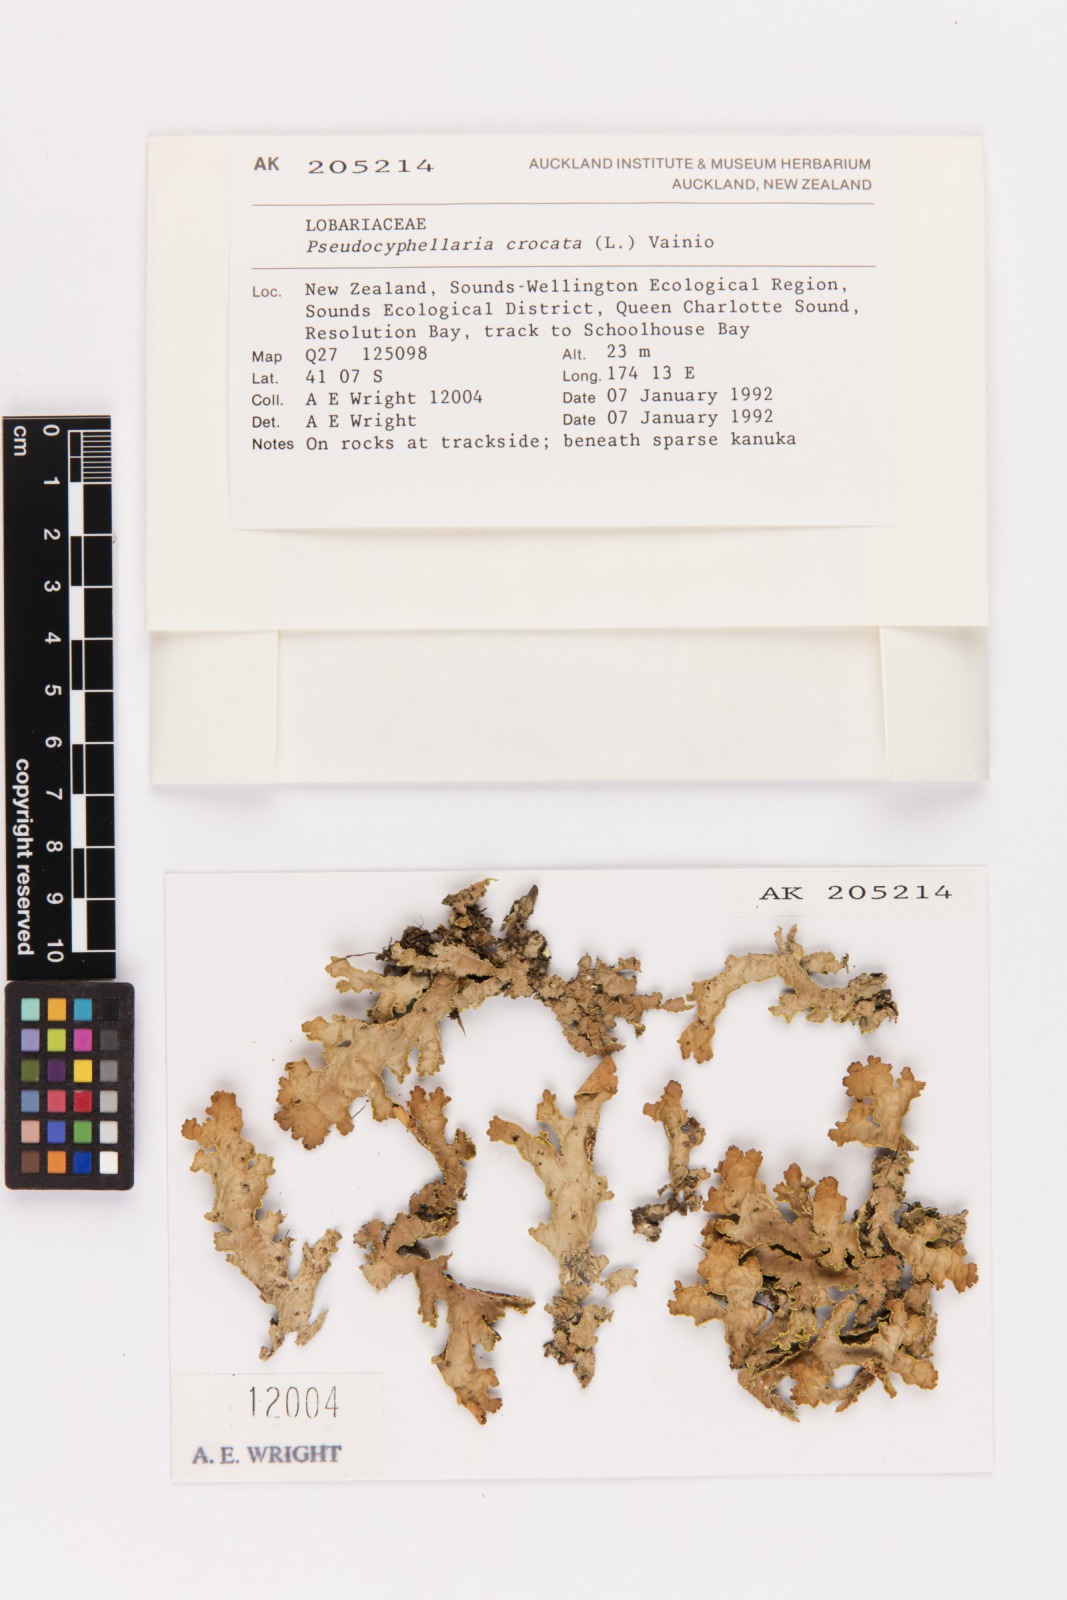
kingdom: Fungi
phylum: Ascomycota
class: Lecanoromycetes
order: Peltigerales
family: Lobariaceae
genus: Pseudocyphellaria
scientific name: Pseudocyphellaria crocata
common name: Golden specklebelly
